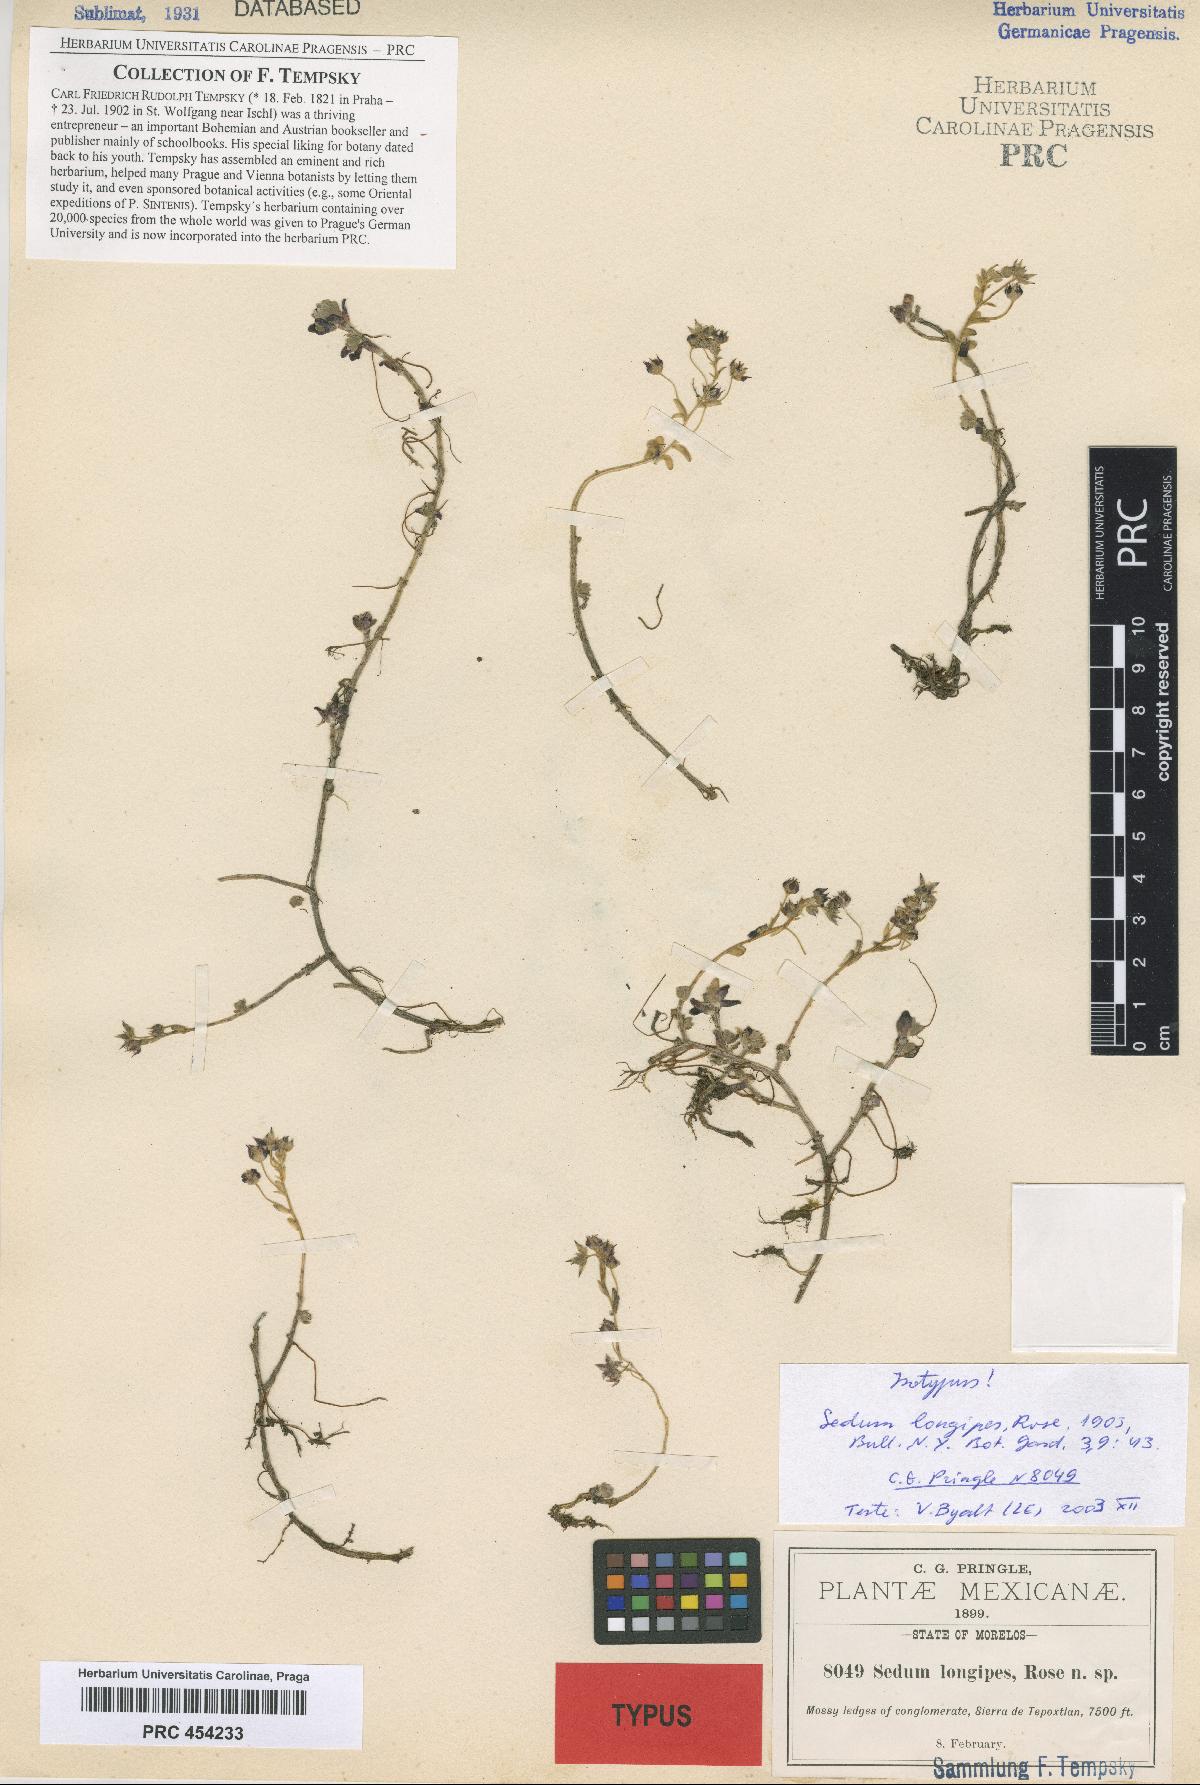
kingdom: Plantae
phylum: Tracheophyta
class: Magnoliopsida
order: Saxifragales
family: Crassulaceae
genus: Sedum
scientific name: Sedum longipes
